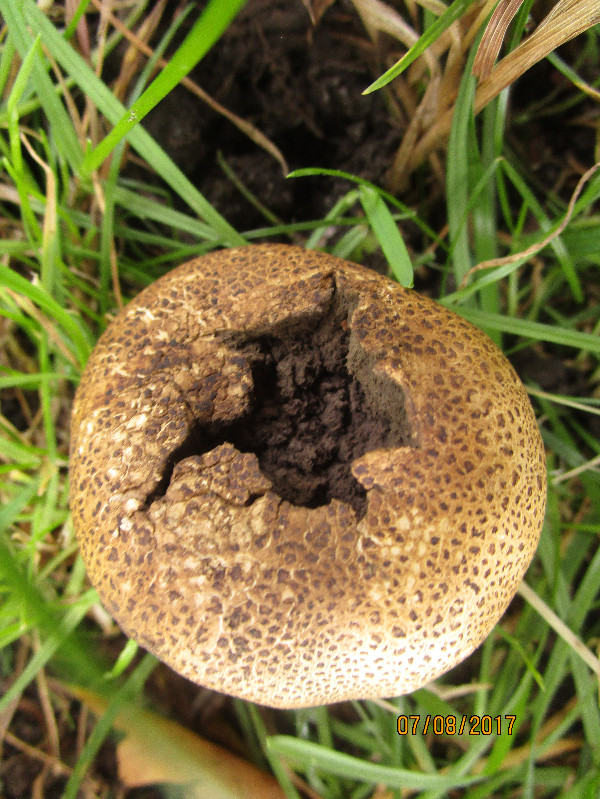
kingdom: Fungi
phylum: Basidiomycota
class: Agaricomycetes
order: Boletales
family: Sclerodermataceae
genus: Scleroderma
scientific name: Scleroderma verrucosum
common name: stilket bruskbold
